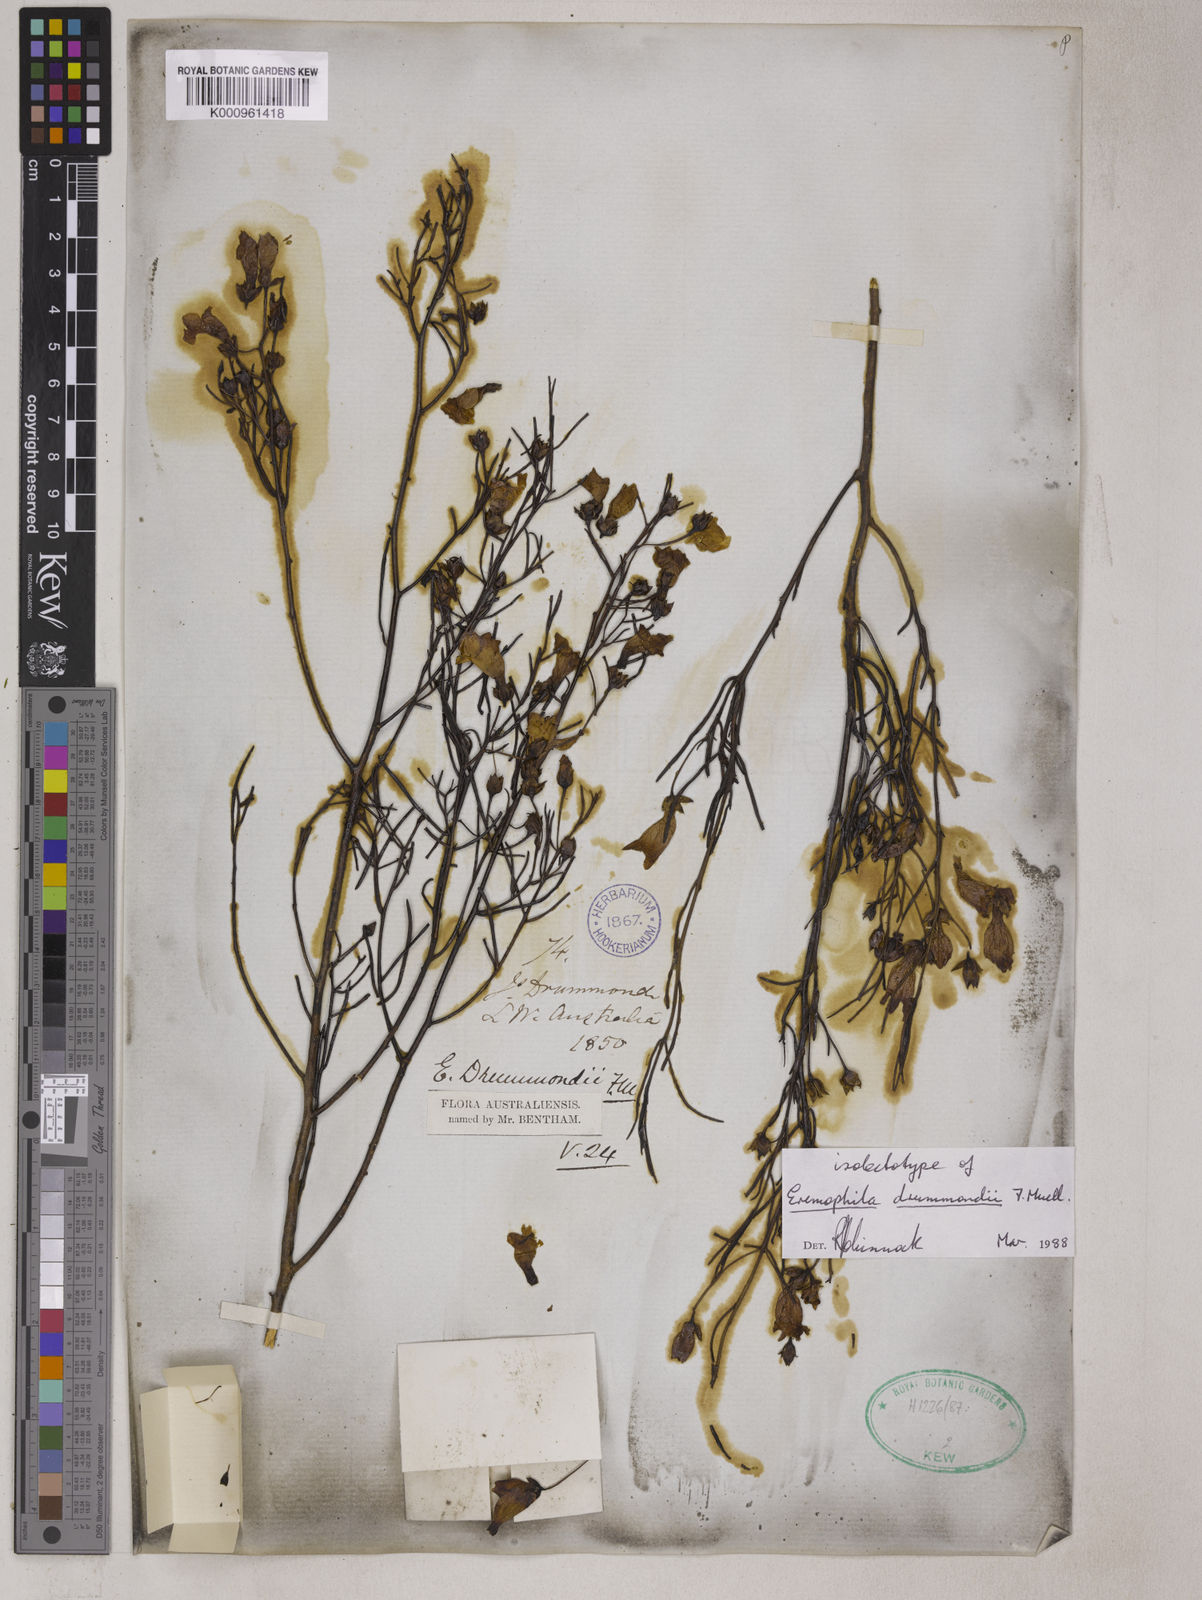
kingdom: Plantae
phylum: Tracheophyta
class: Magnoliopsida
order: Lamiales
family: Scrophulariaceae
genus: Eremophila
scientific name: Eremophila drummondii
